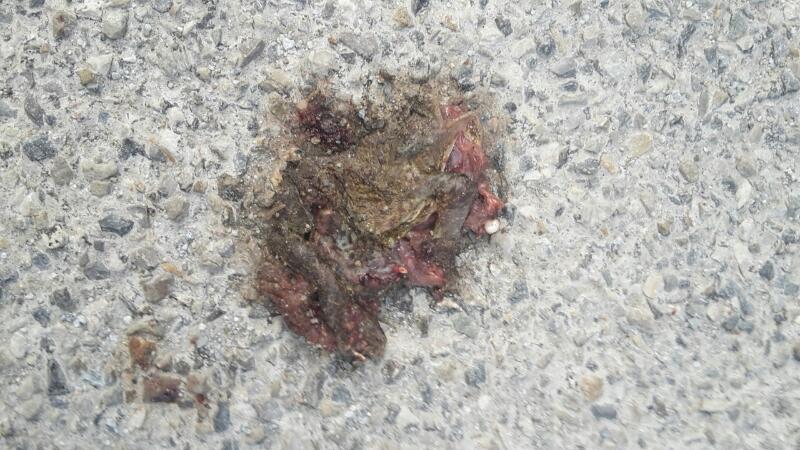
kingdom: Animalia
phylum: Chordata
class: Amphibia
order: Anura
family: Bufonidae
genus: Bufo
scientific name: Bufo bufo
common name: Common toad
